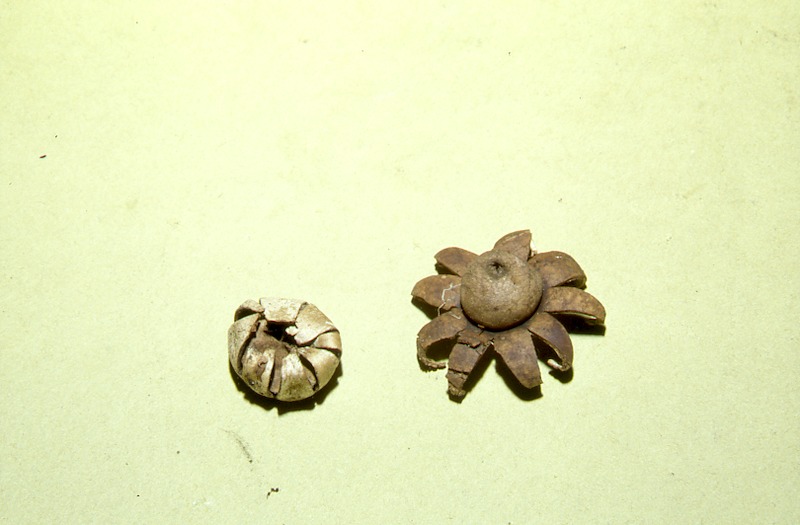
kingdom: Fungi
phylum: Basidiomycota
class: Agaricomycetes
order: Geastrales
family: Geastraceae
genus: Geastrum
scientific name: Geastrum corollinum
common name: Weathered earthstar
